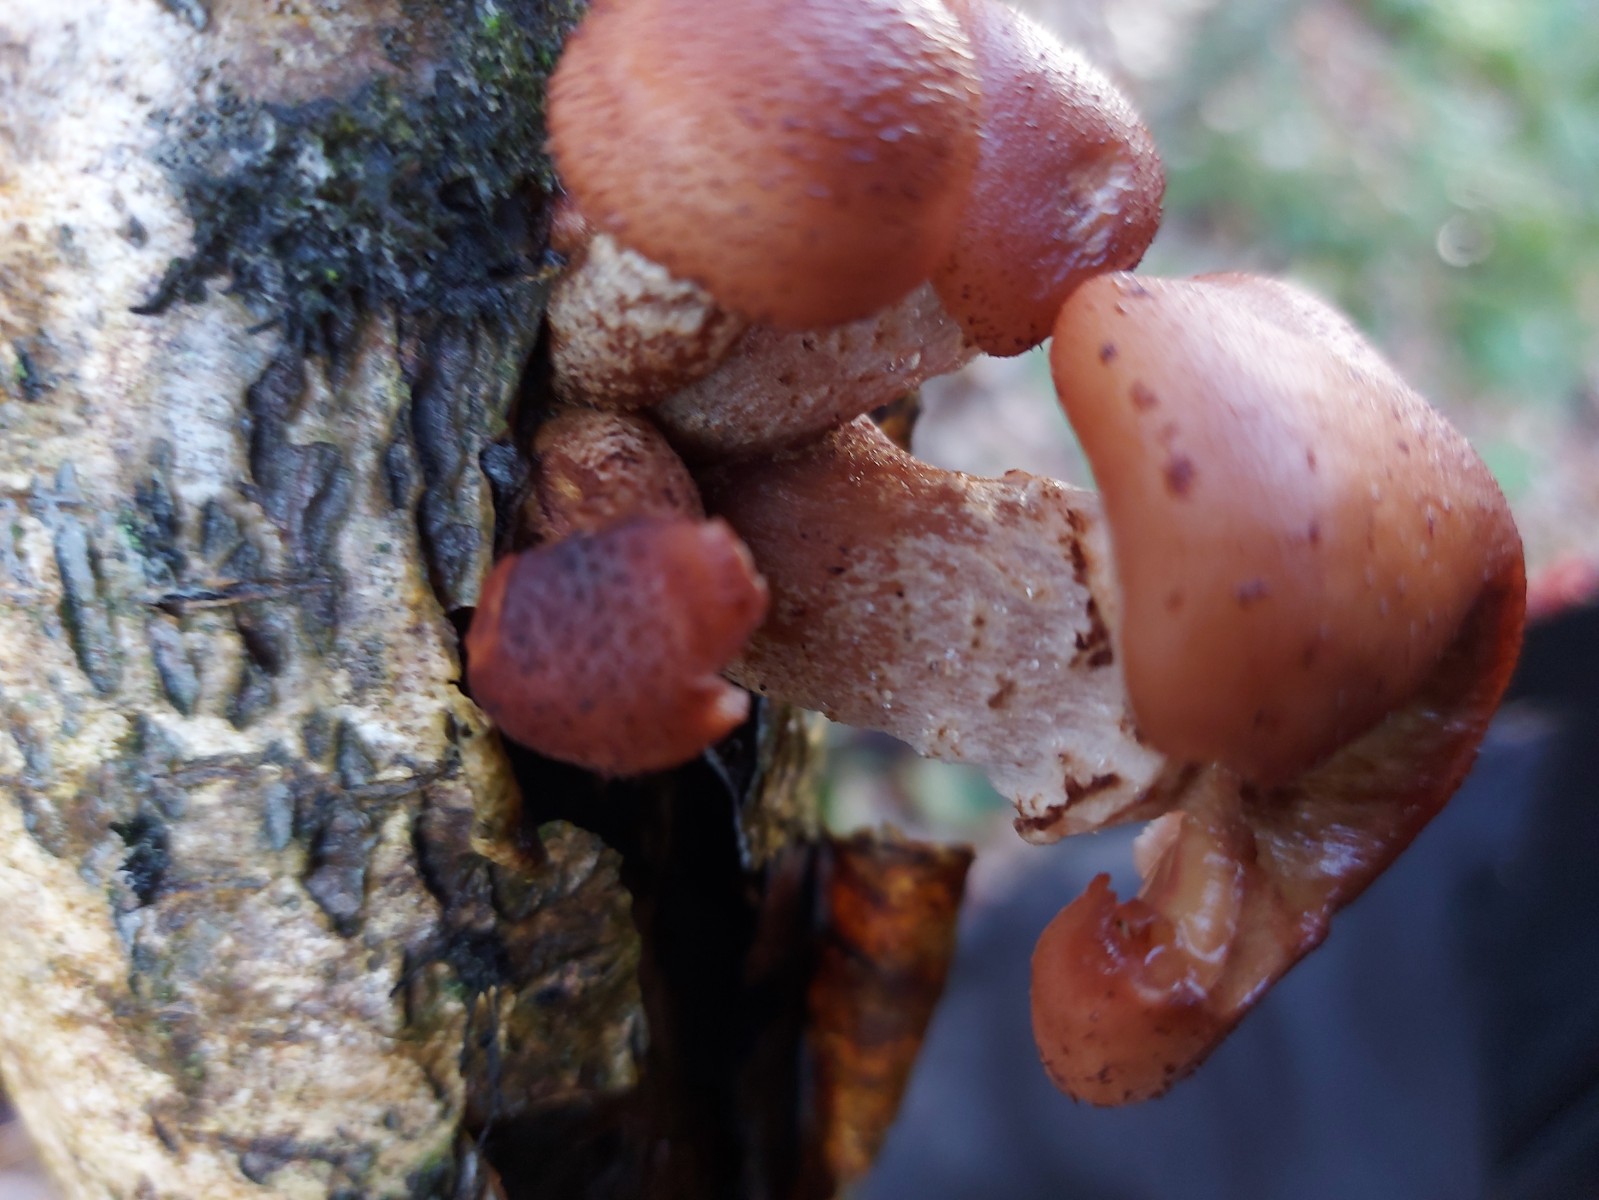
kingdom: Fungi
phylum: Basidiomycota
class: Agaricomycetes
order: Agaricales
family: Physalacriaceae
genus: Armillaria
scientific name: Armillaria
